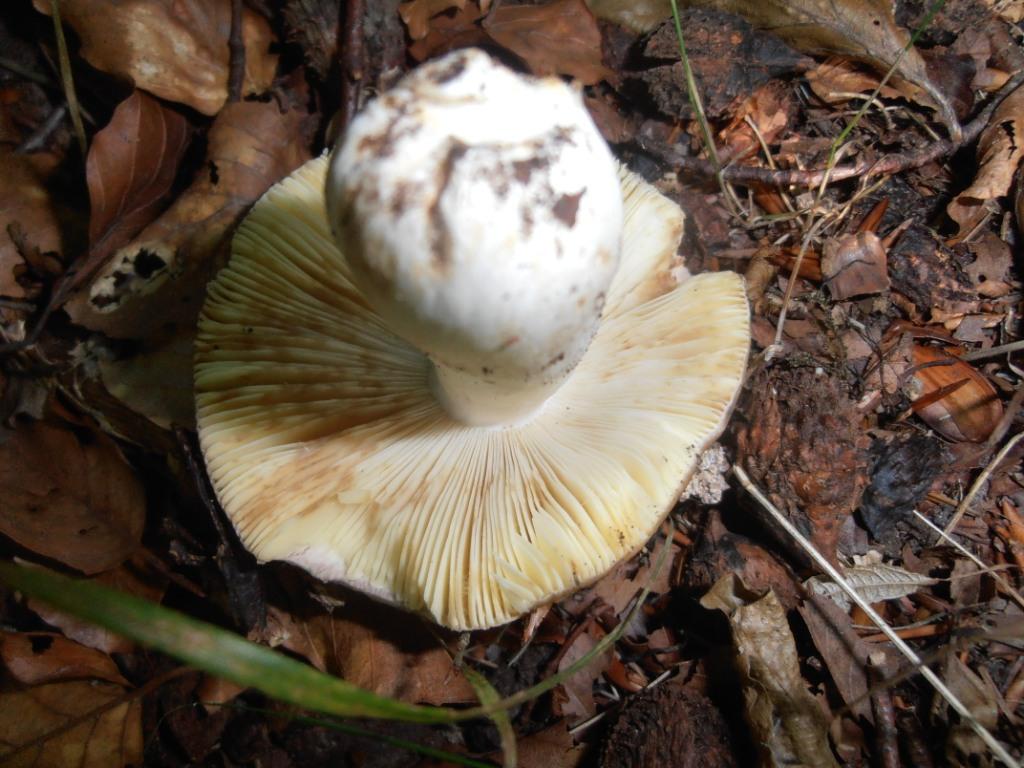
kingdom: Fungi
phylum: Basidiomycota
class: Agaricomycetes
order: Russulales
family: Russulaceae
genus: Russula
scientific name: Russula faginea
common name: bøge-skørhat
